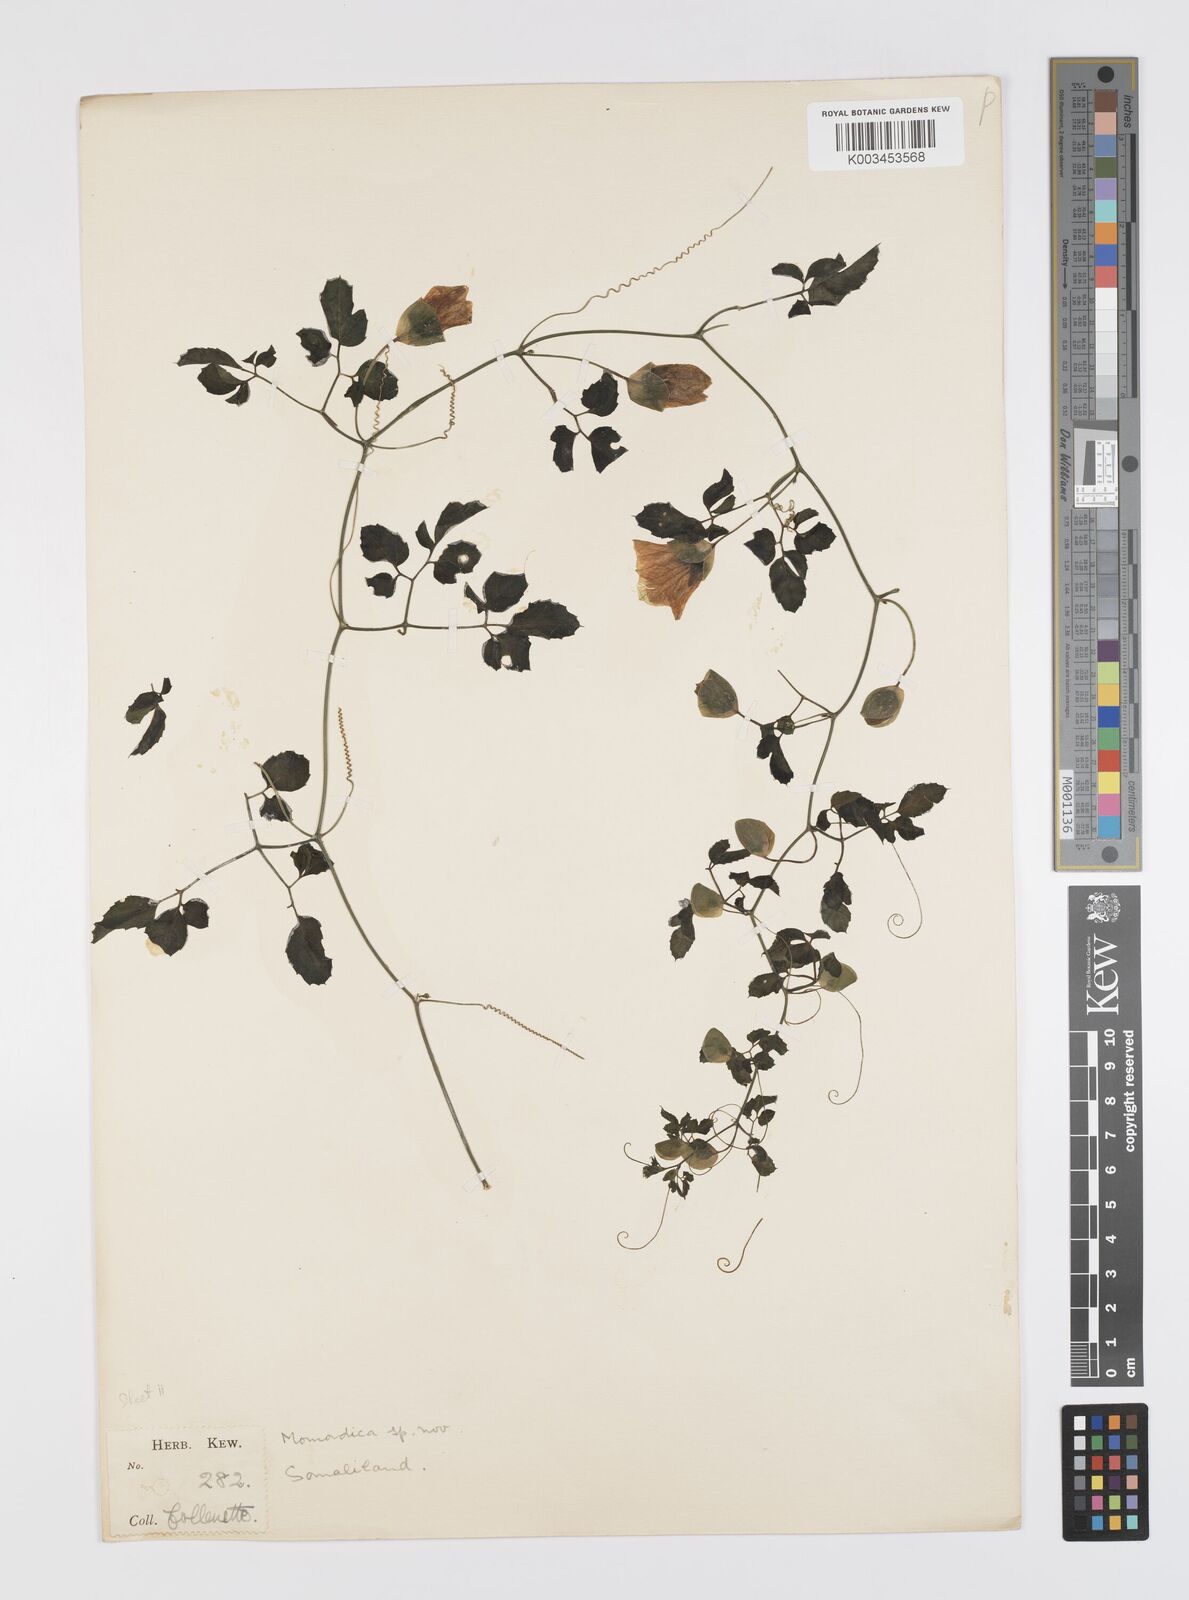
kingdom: Plantae
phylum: Tracheophyta
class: Magnoliopsida
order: Cucurbitales
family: Cucurbitaceae
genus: Momordica
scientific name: Momordica trifoliolata
